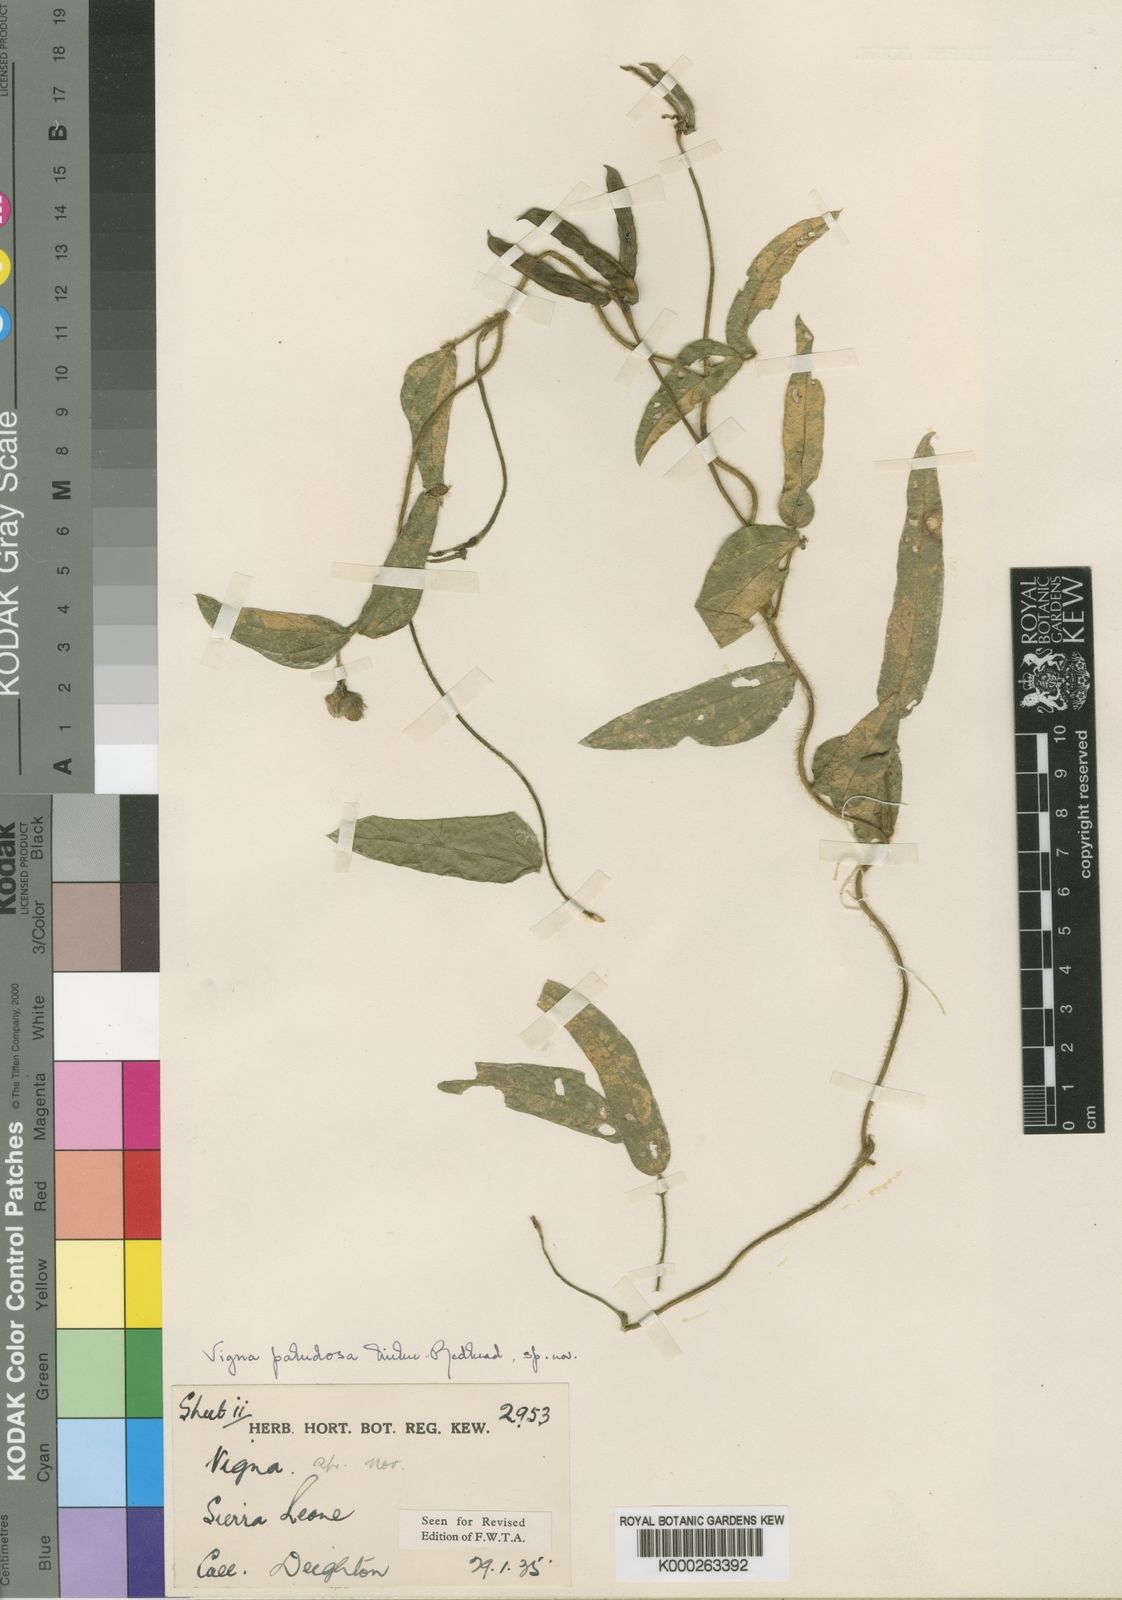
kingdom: Plantae
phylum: Tracheophyta
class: Magnoliopsida
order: Fabales
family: Fabaceae
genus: Vigna
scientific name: Vigna longifolia
